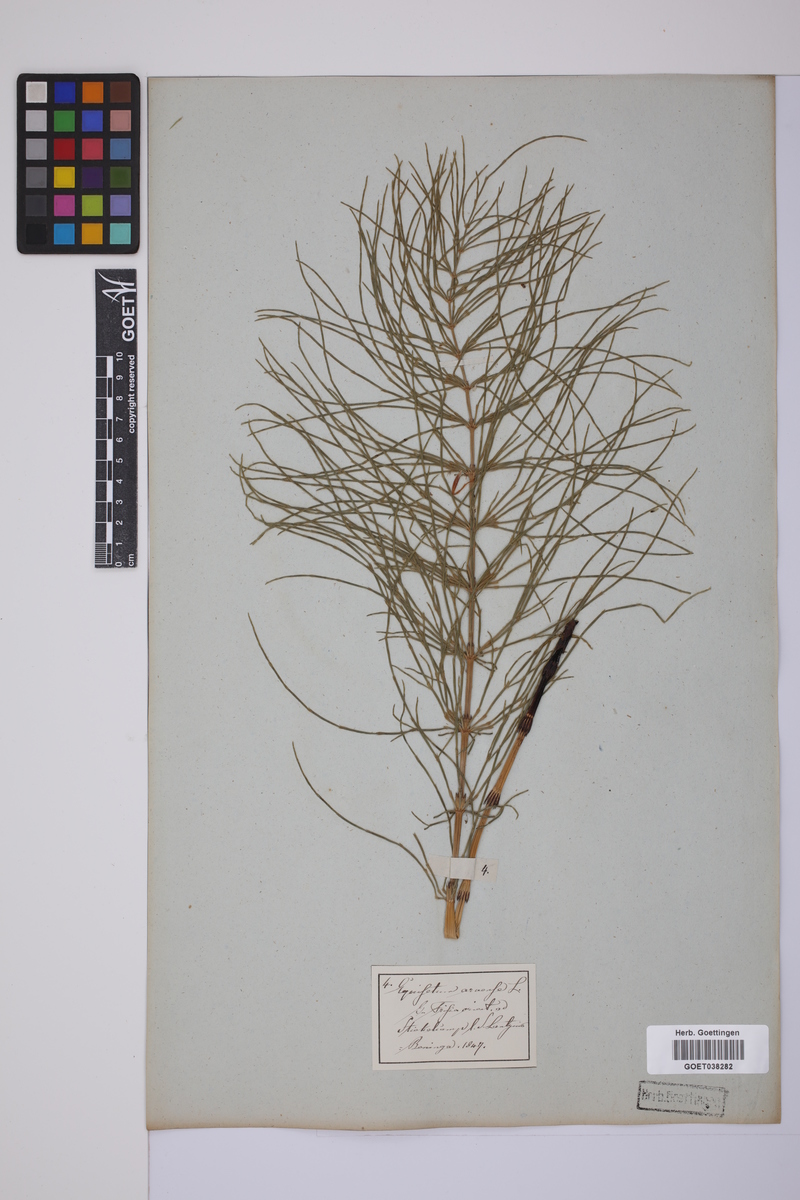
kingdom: Plantae
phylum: Tracheophyta
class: Polypodiopsida
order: Equisetales
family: Equisetaceae
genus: Equisetum
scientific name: Equisetum arvense
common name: Field horsetail
